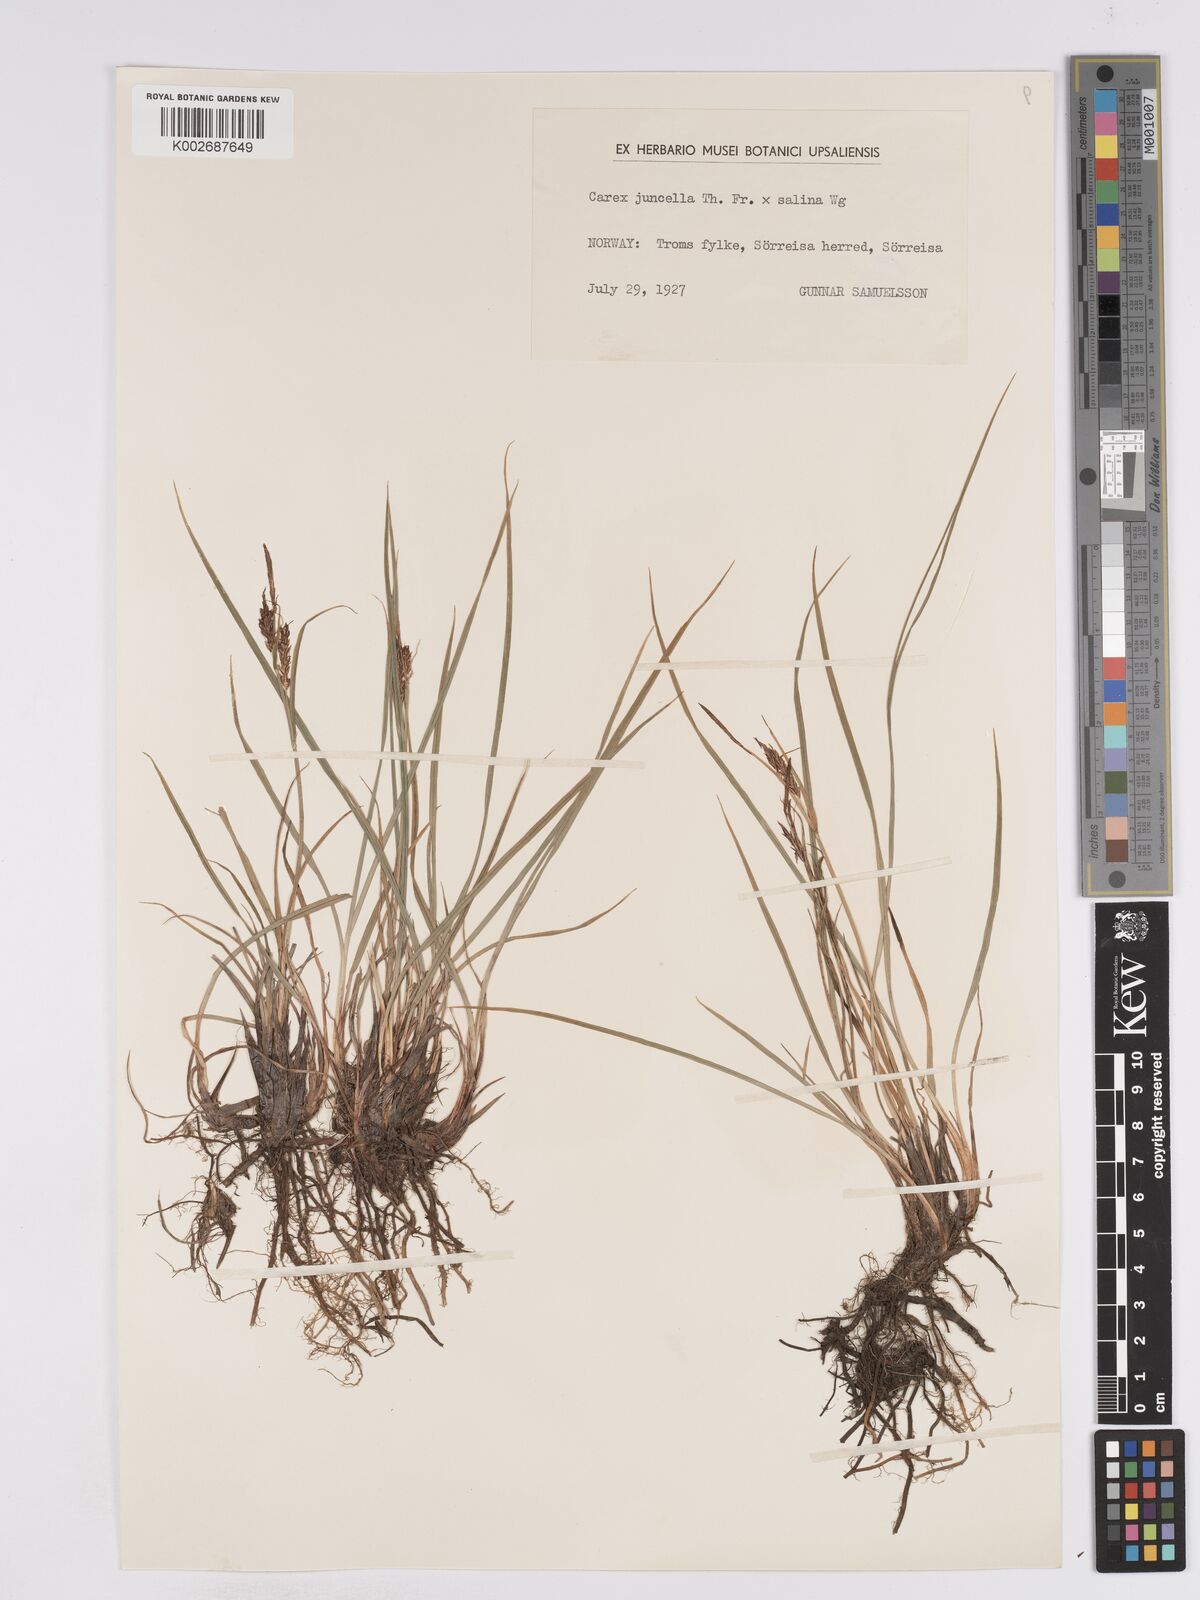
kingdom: Plantae
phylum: Tracheophyta
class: Liliopsida
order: Poales
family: Cyperaceae
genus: Carex
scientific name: Carex
